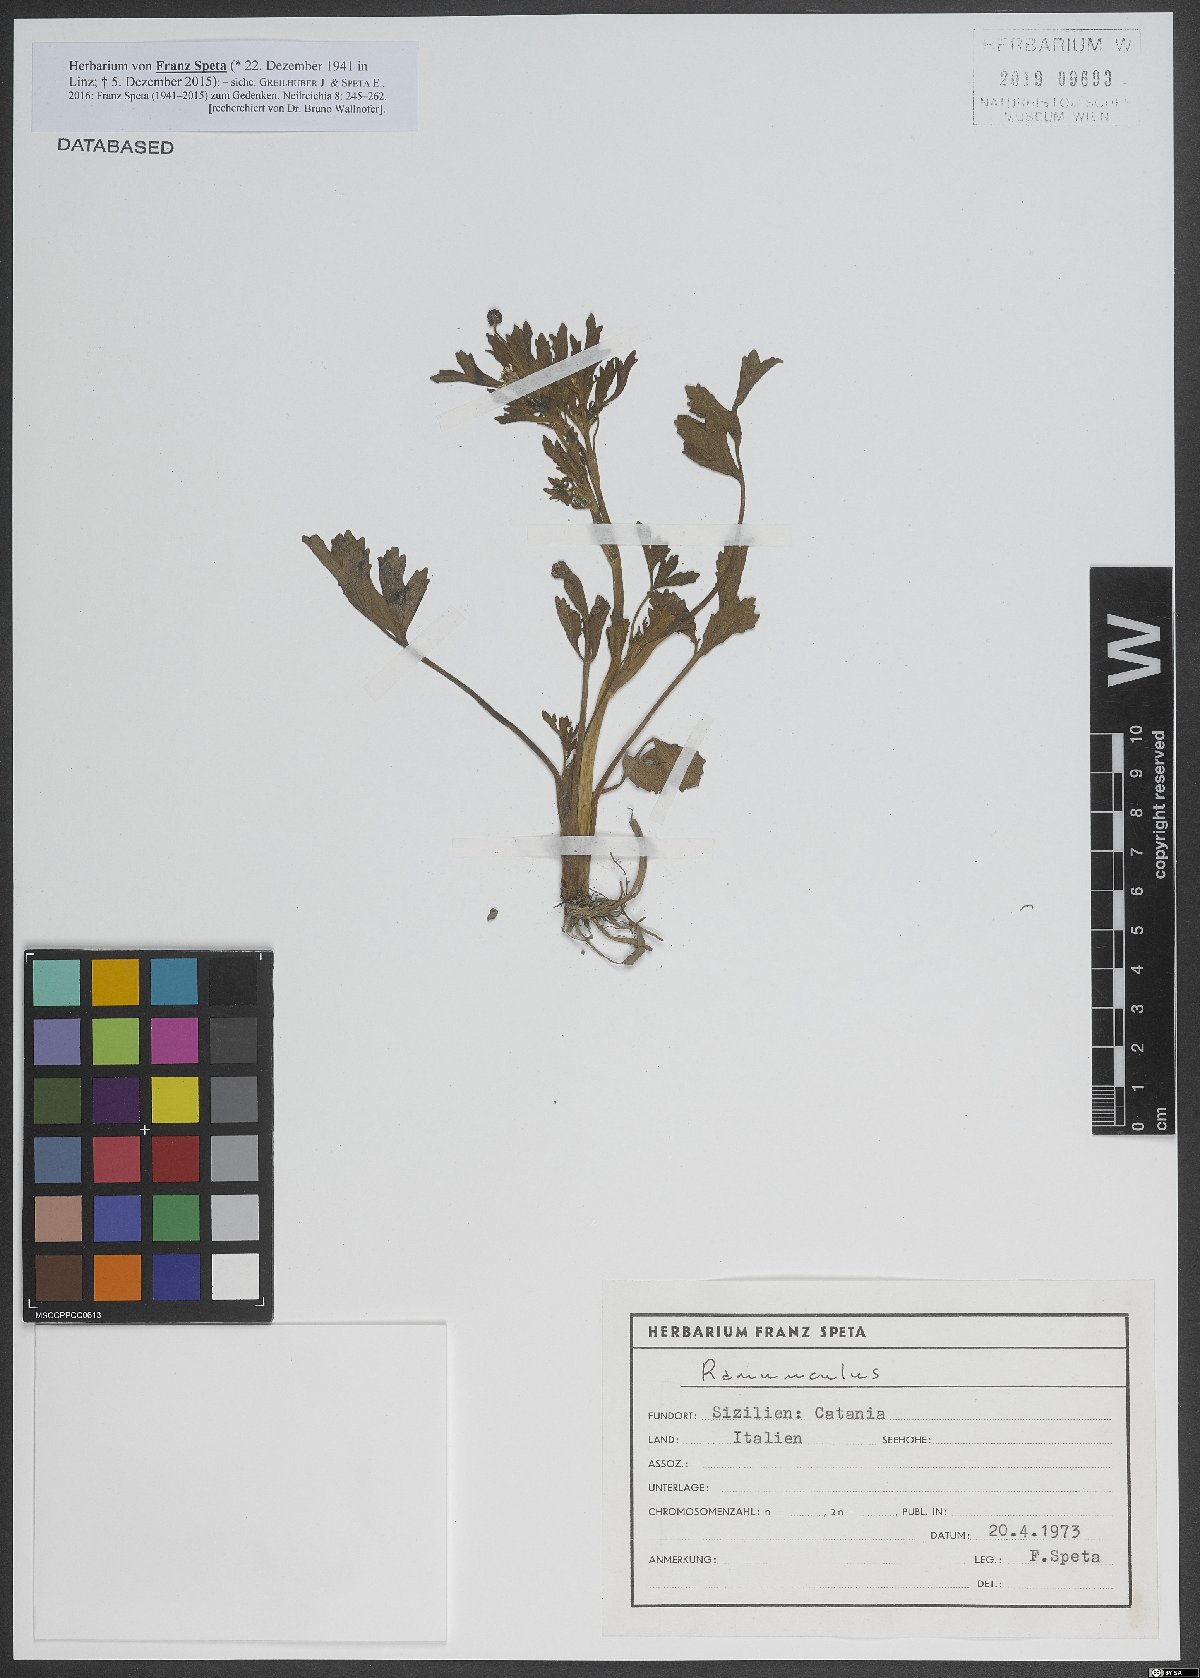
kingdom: Plantae
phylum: Tracheophyta
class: Magnoliopsida
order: Ranunculales
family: Ranunculaceae
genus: Ranunculus
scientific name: Ranunculus
